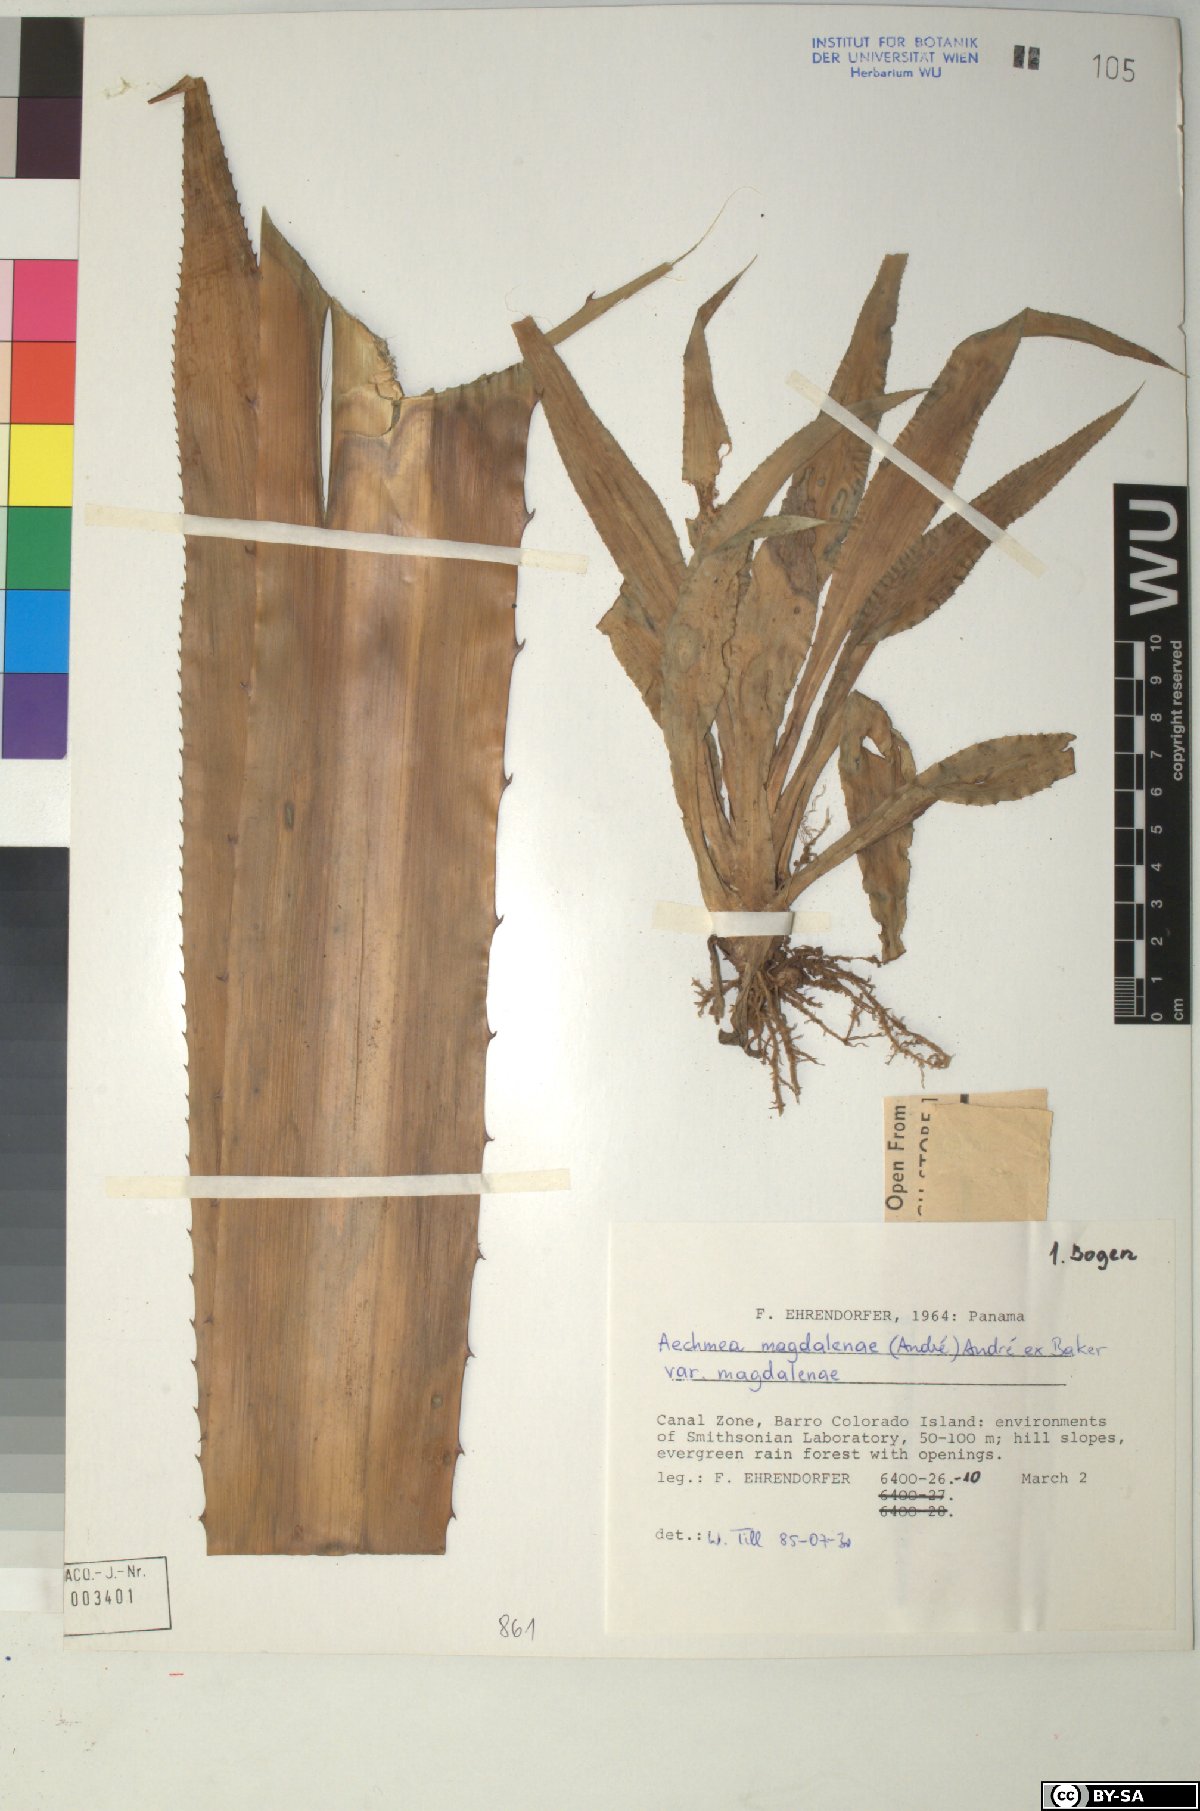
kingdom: Plantae
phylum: Tracheophyta
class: Liliopsida
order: Poales
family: Bromeliaceae
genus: Aechmea
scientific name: Aechmea
